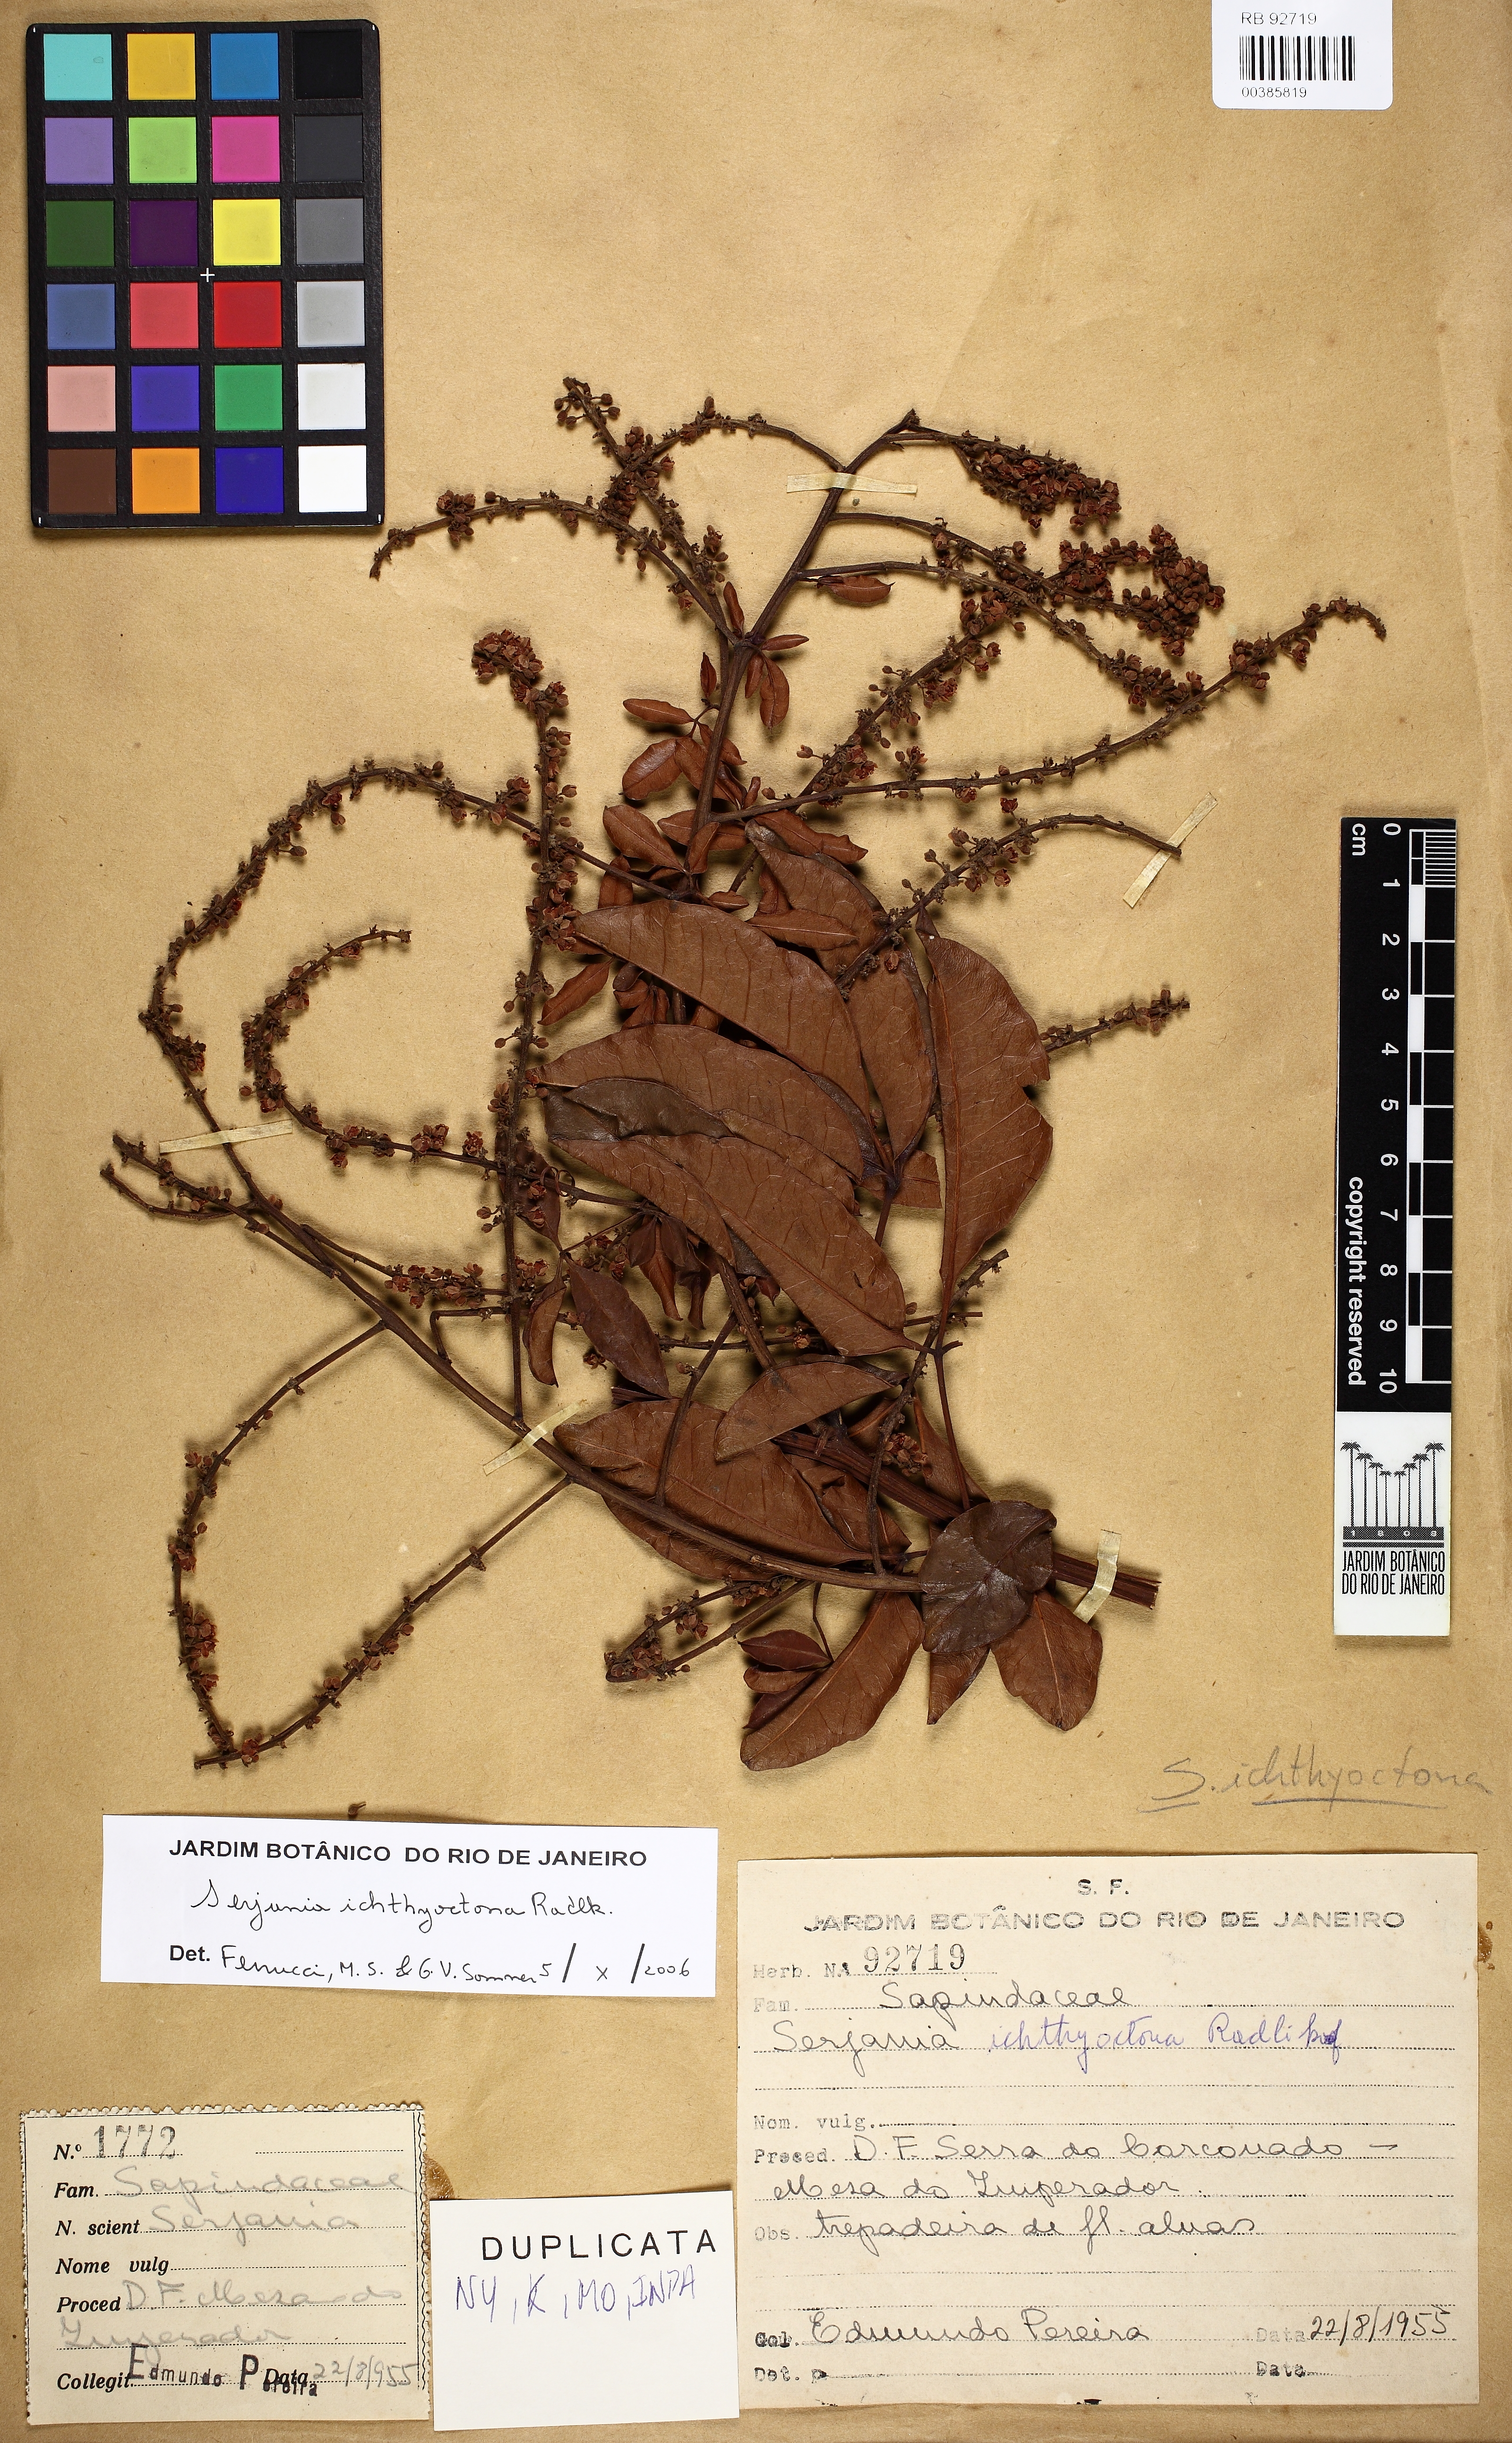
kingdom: Plantae
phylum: Tracheophyta
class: Magnoliopsida
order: Sapindales
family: Sapindaceae
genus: Serjania
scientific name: Serjania ichthyctona
